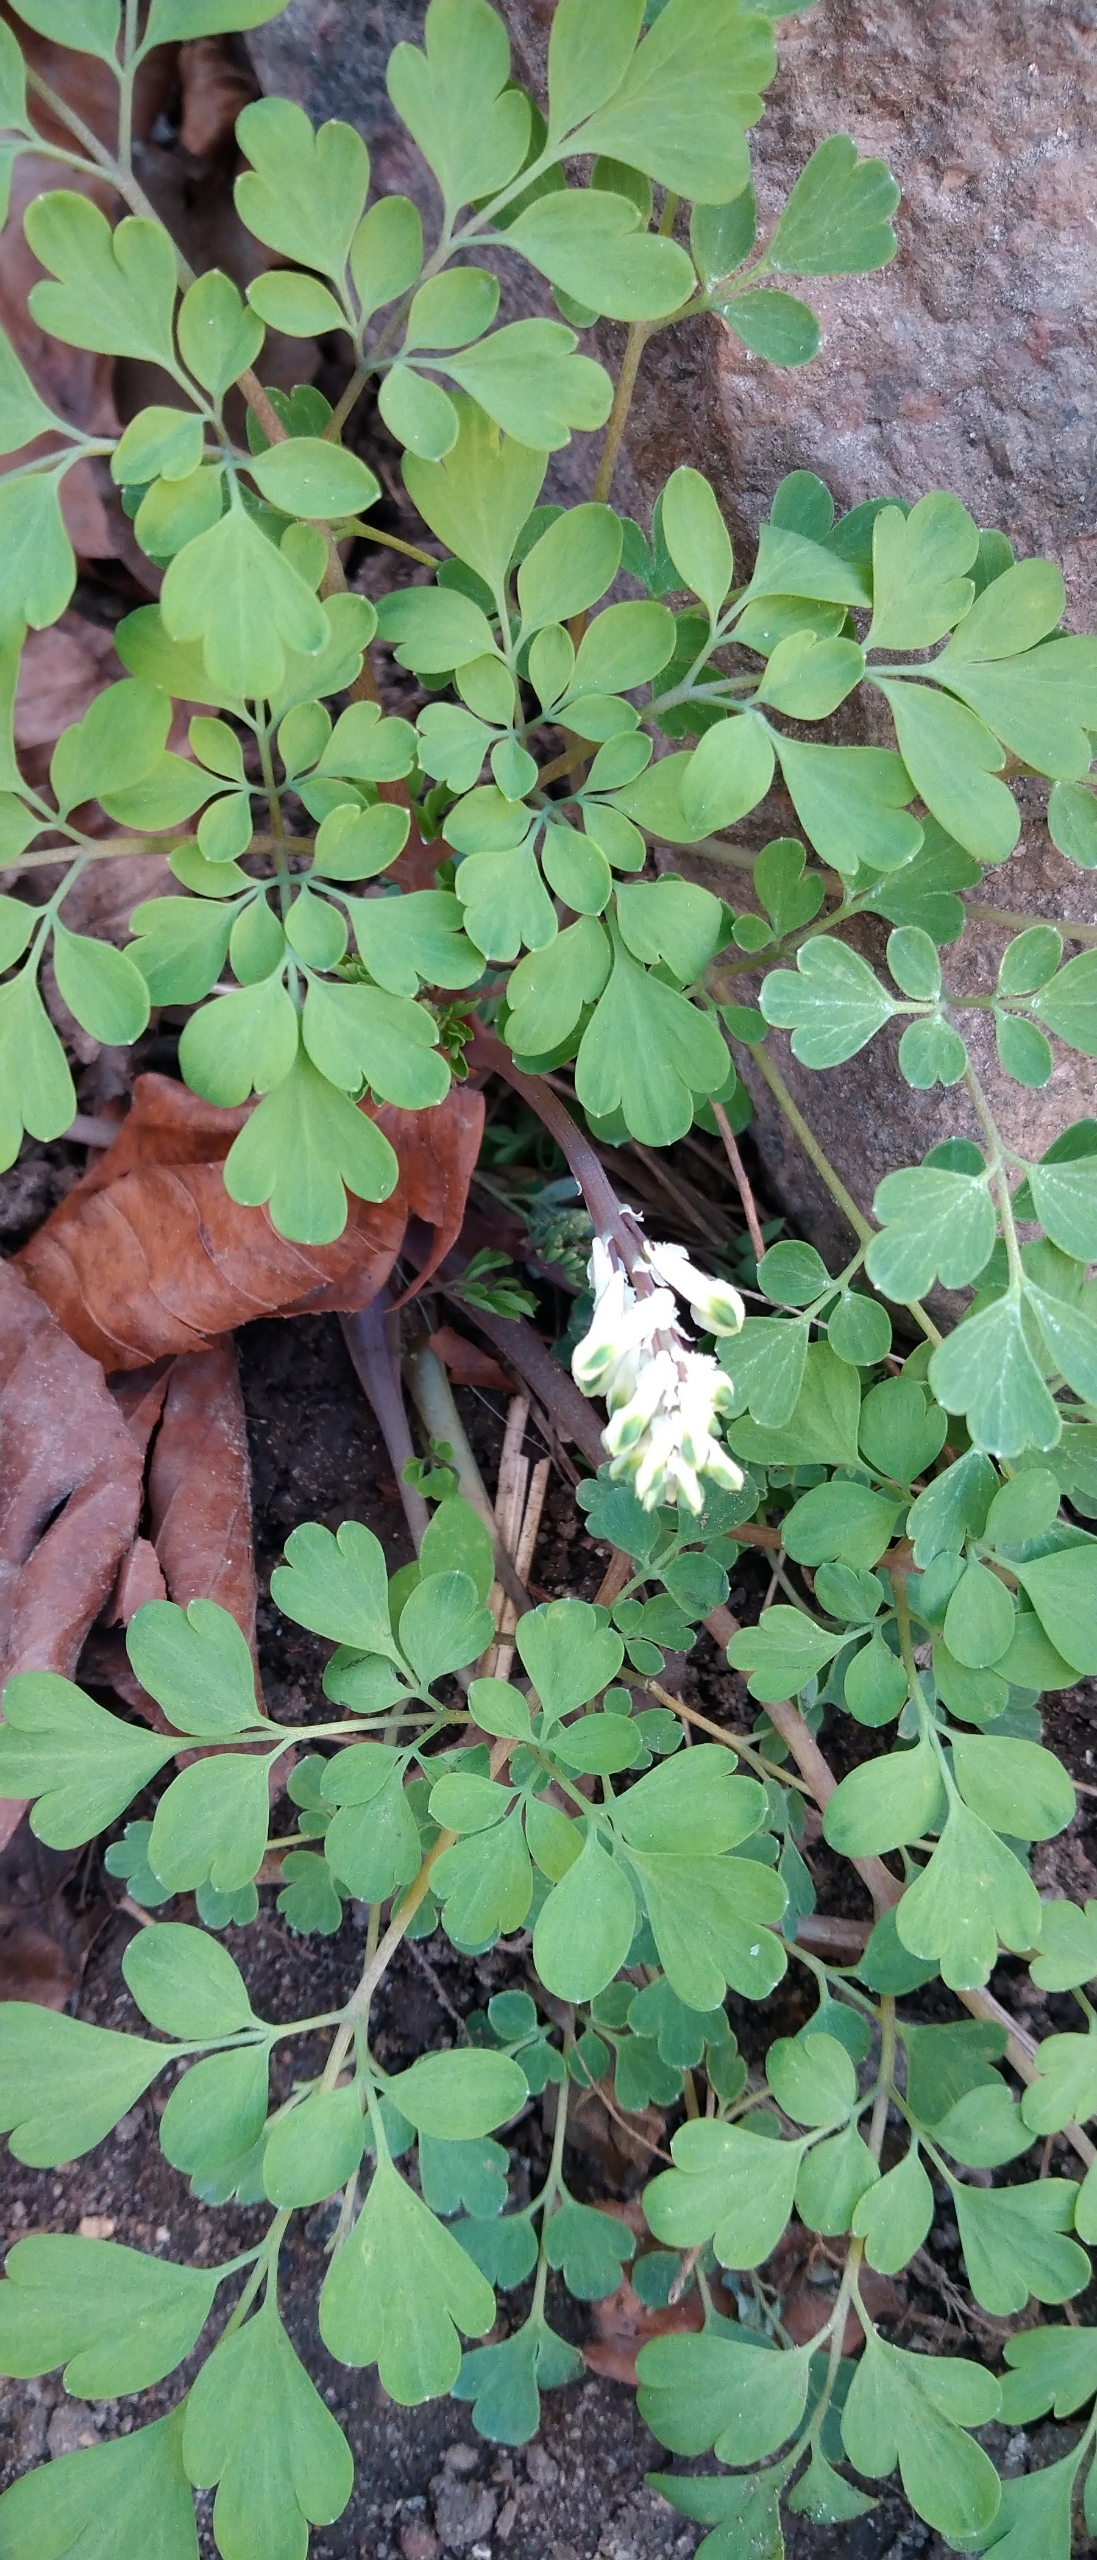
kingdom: Plantae
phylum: Tracheophyta
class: Magnoliopsida
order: Ranunculales
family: Papaveraceae
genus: Corydalis
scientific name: Corydalis cava
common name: Hulrodet lærkespore
